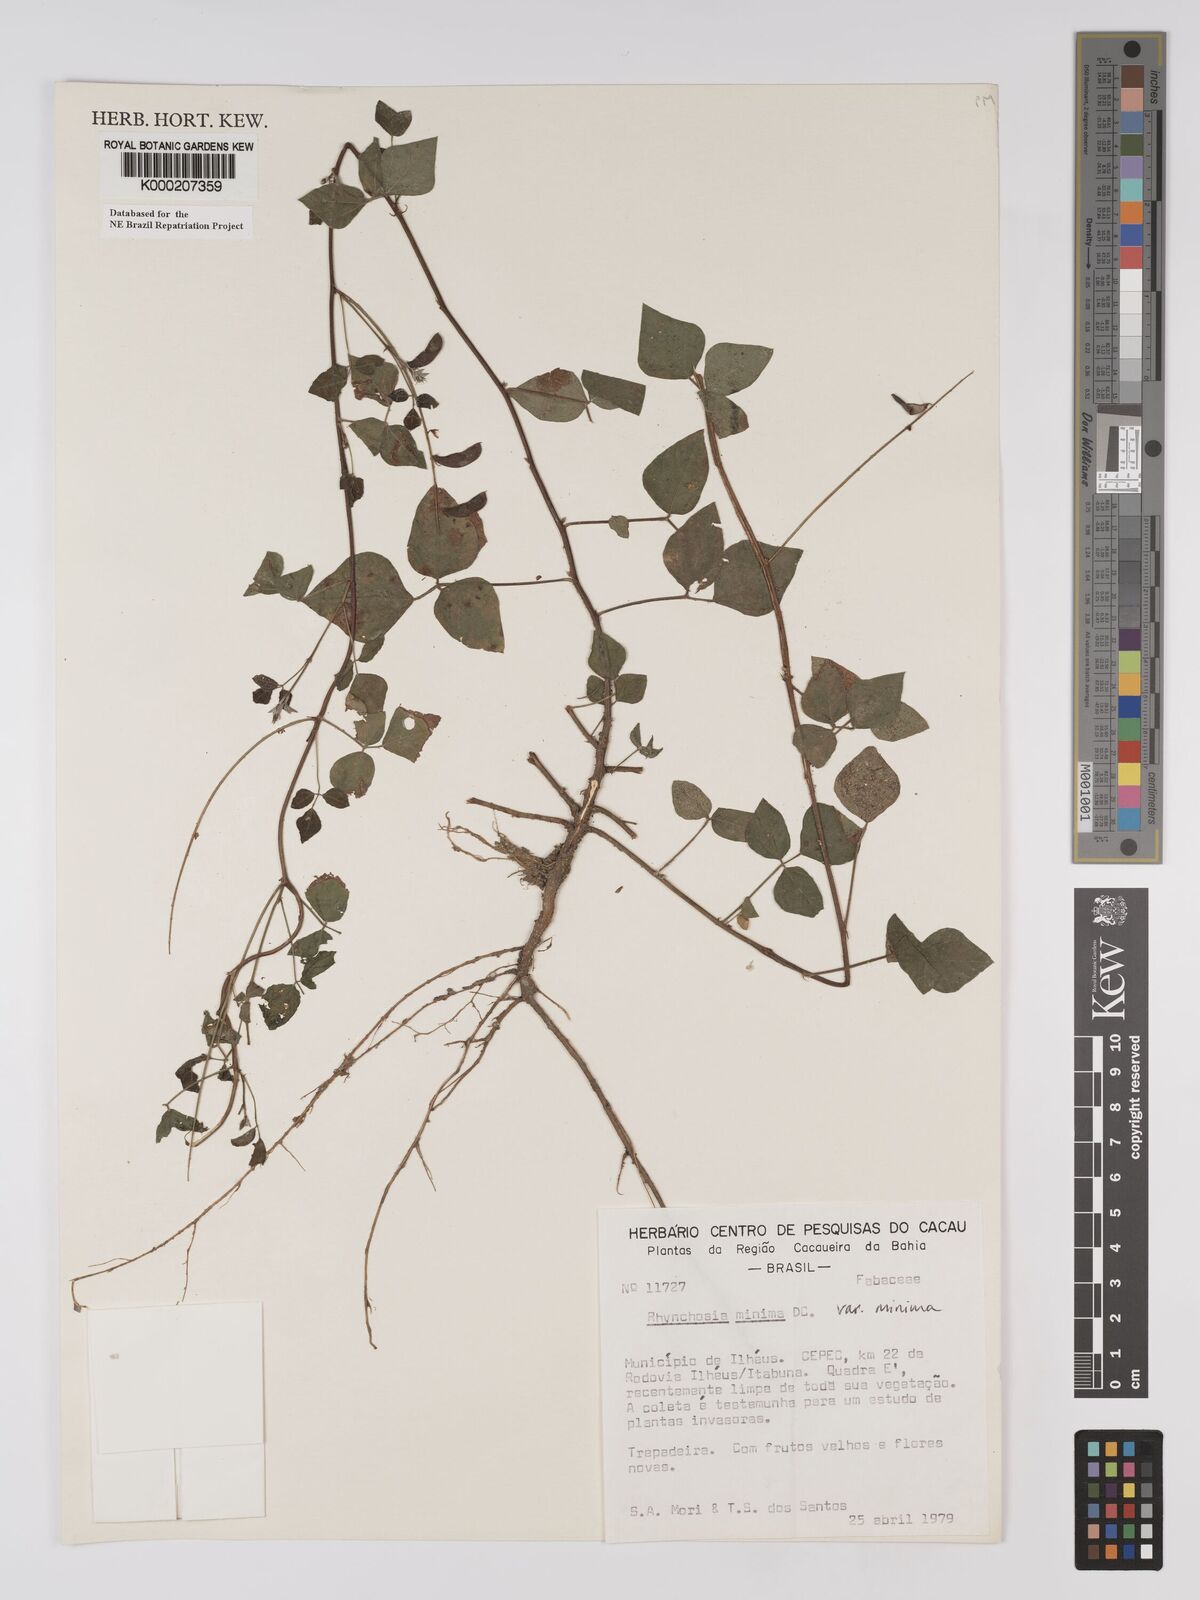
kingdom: Plantae
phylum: Tracheophyta
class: Magnoliopsida
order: Fabales
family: Fabaceae
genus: Rhynchosia
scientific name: Rhynchosia minima
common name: Least snoutbean
